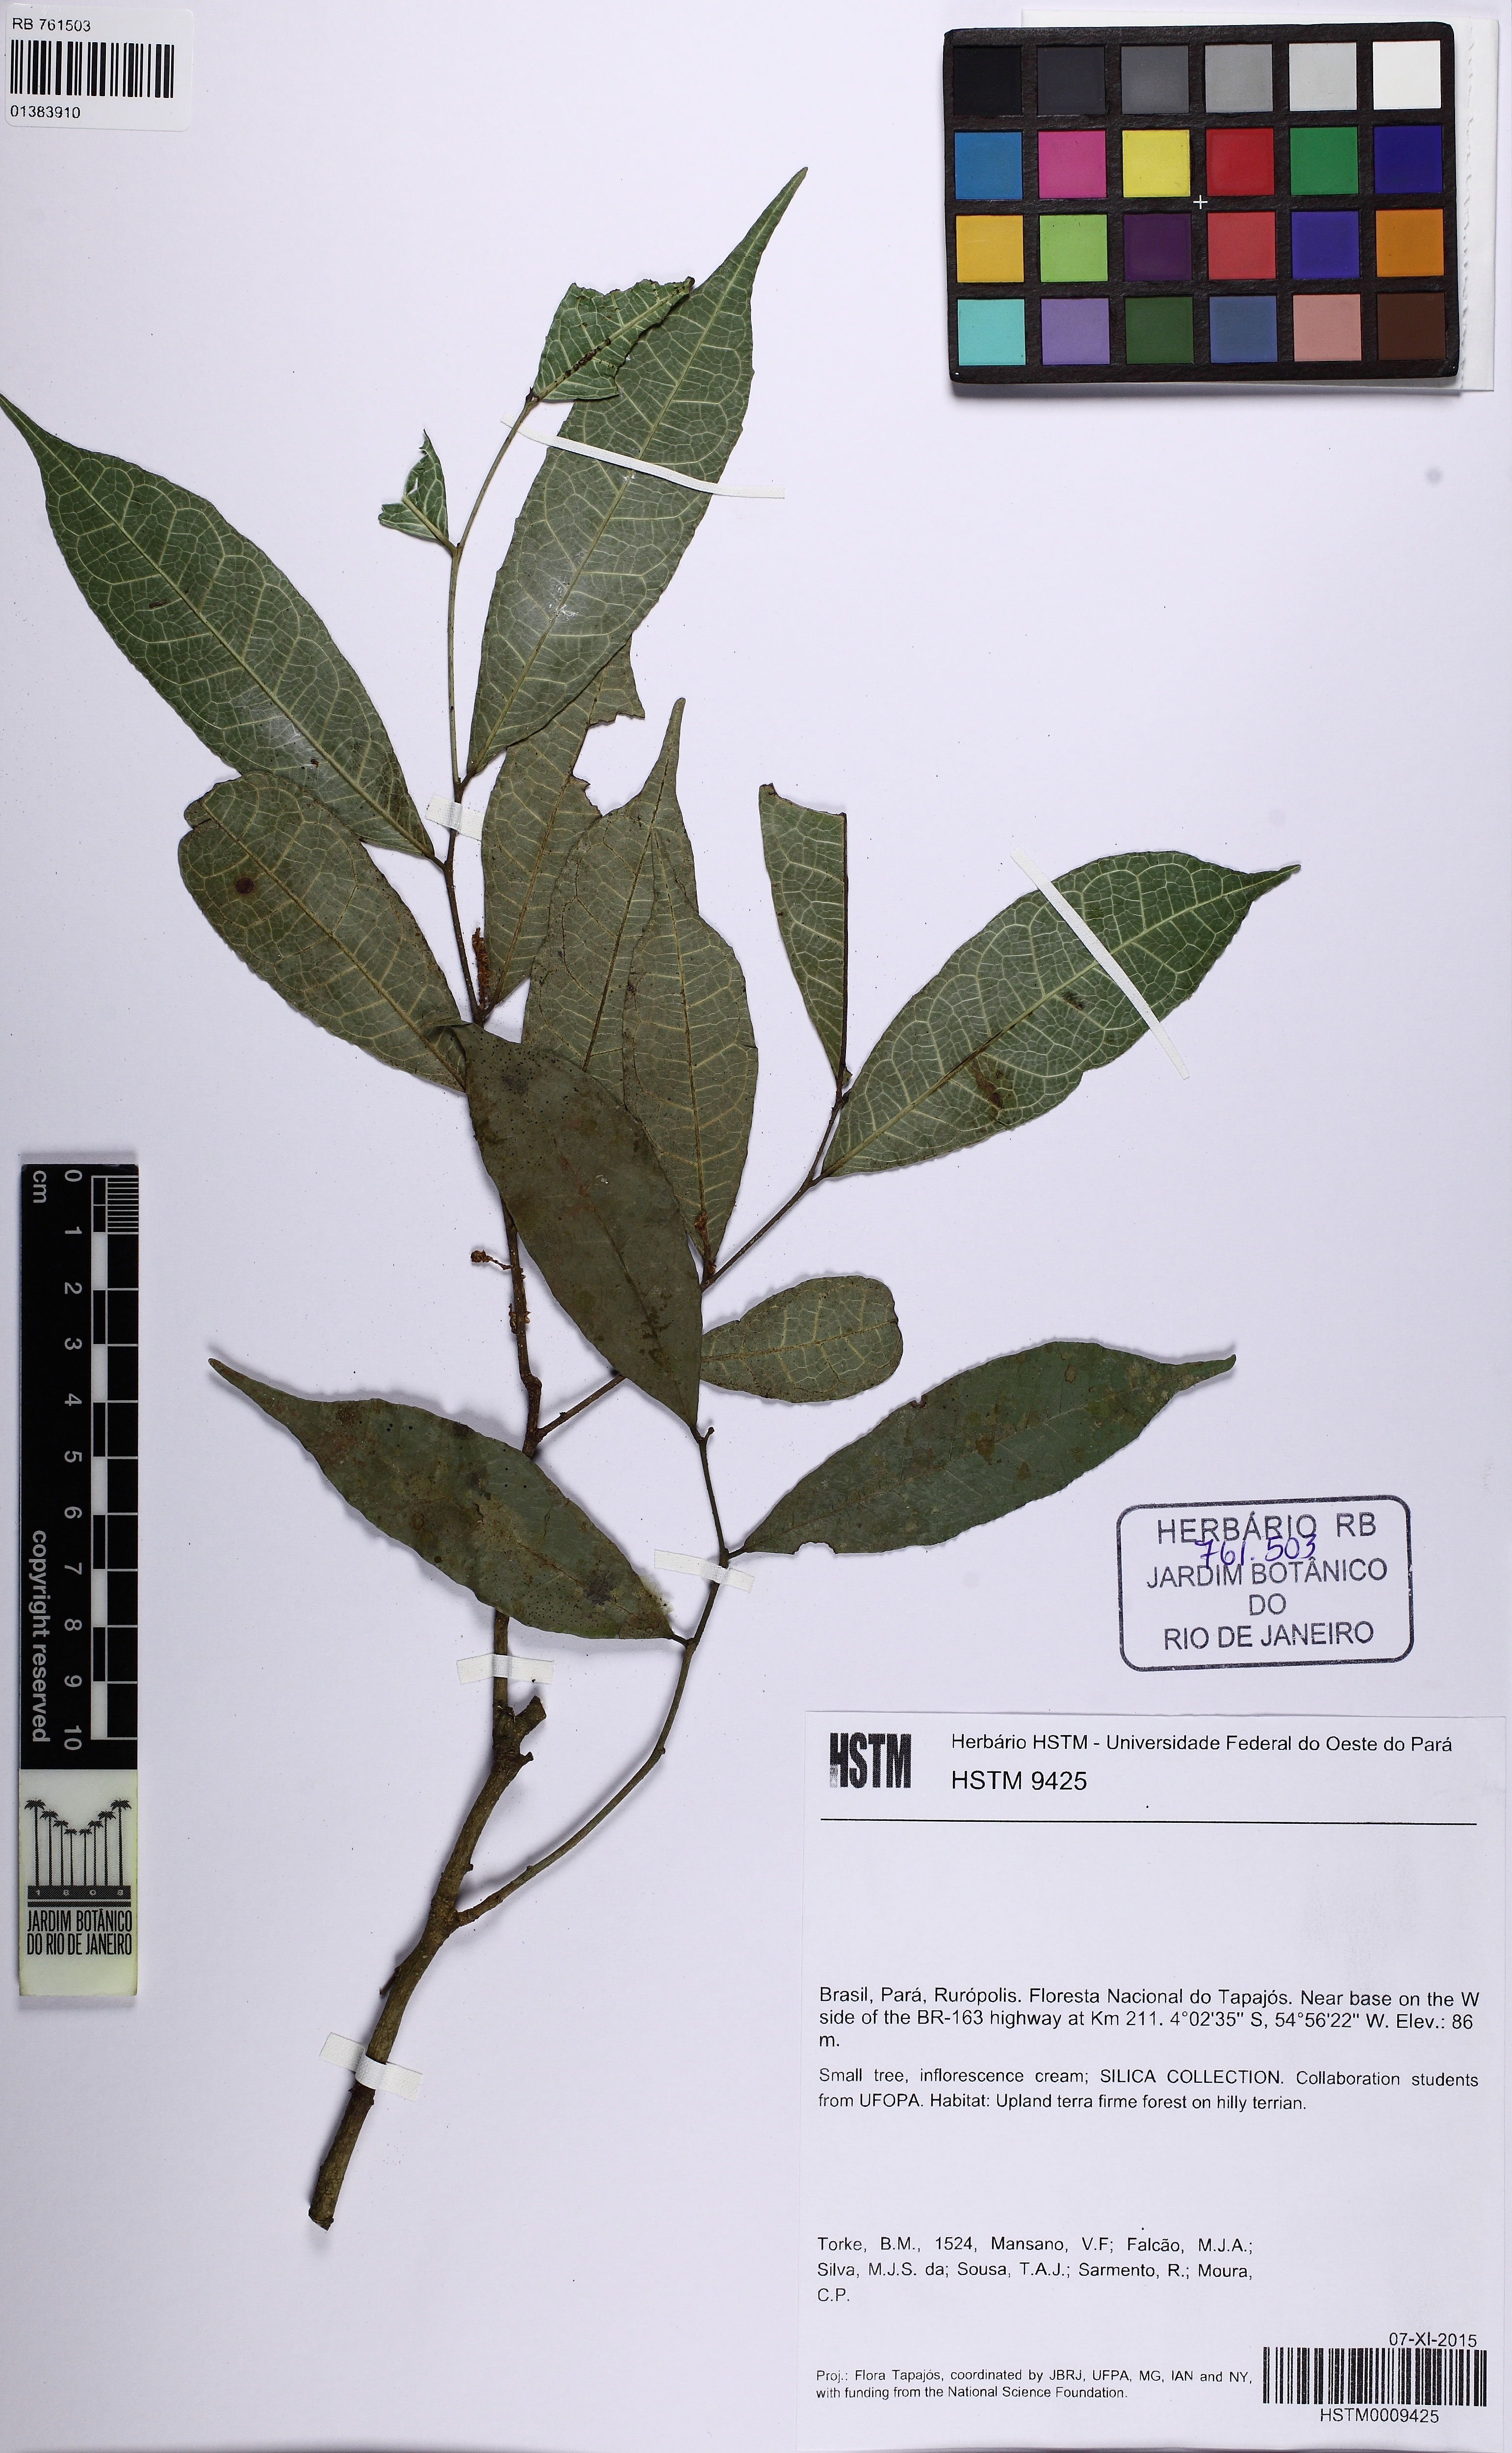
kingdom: Plantae
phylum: Tracheophyta
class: Magnoliopsida
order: Rosales
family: Moraceae
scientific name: Moraceae
